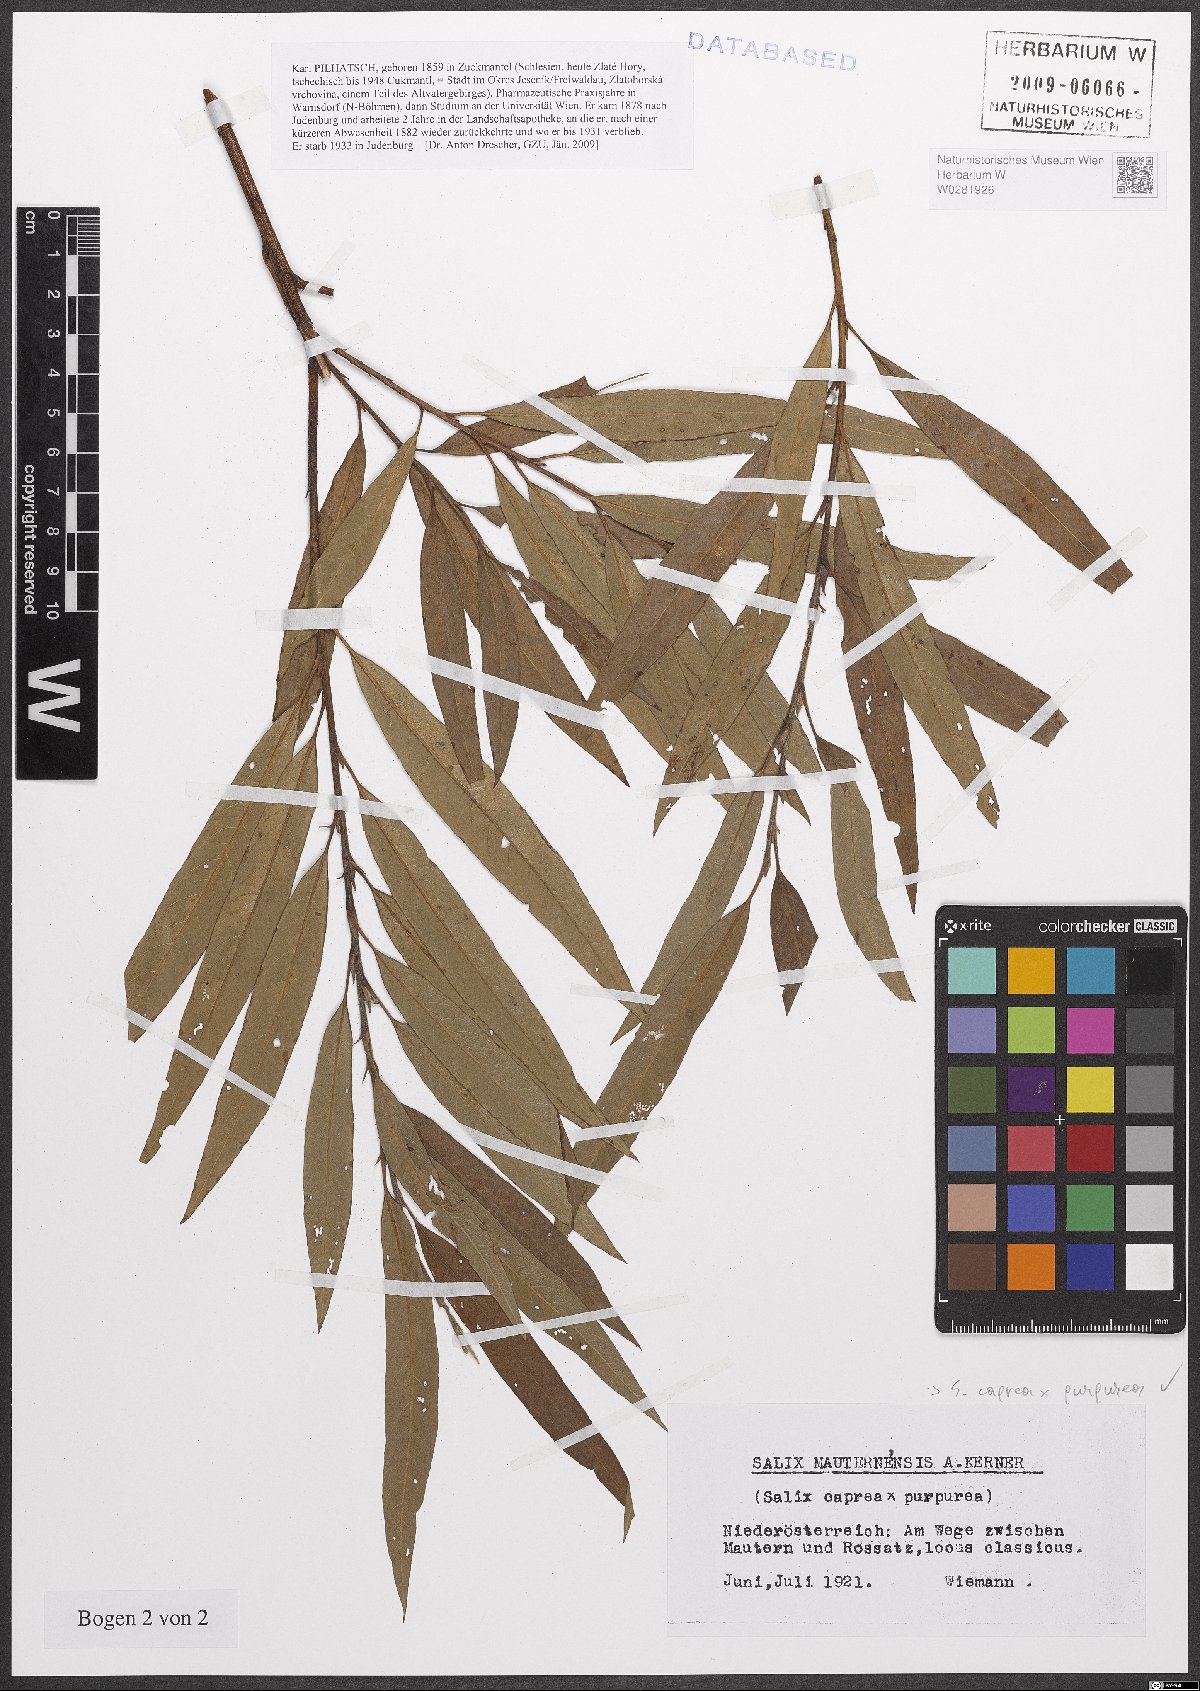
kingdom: Plantae
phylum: Tracheophyta
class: Magnoliopsida
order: Malpighiales
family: Salicaceae
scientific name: Salicaceae
